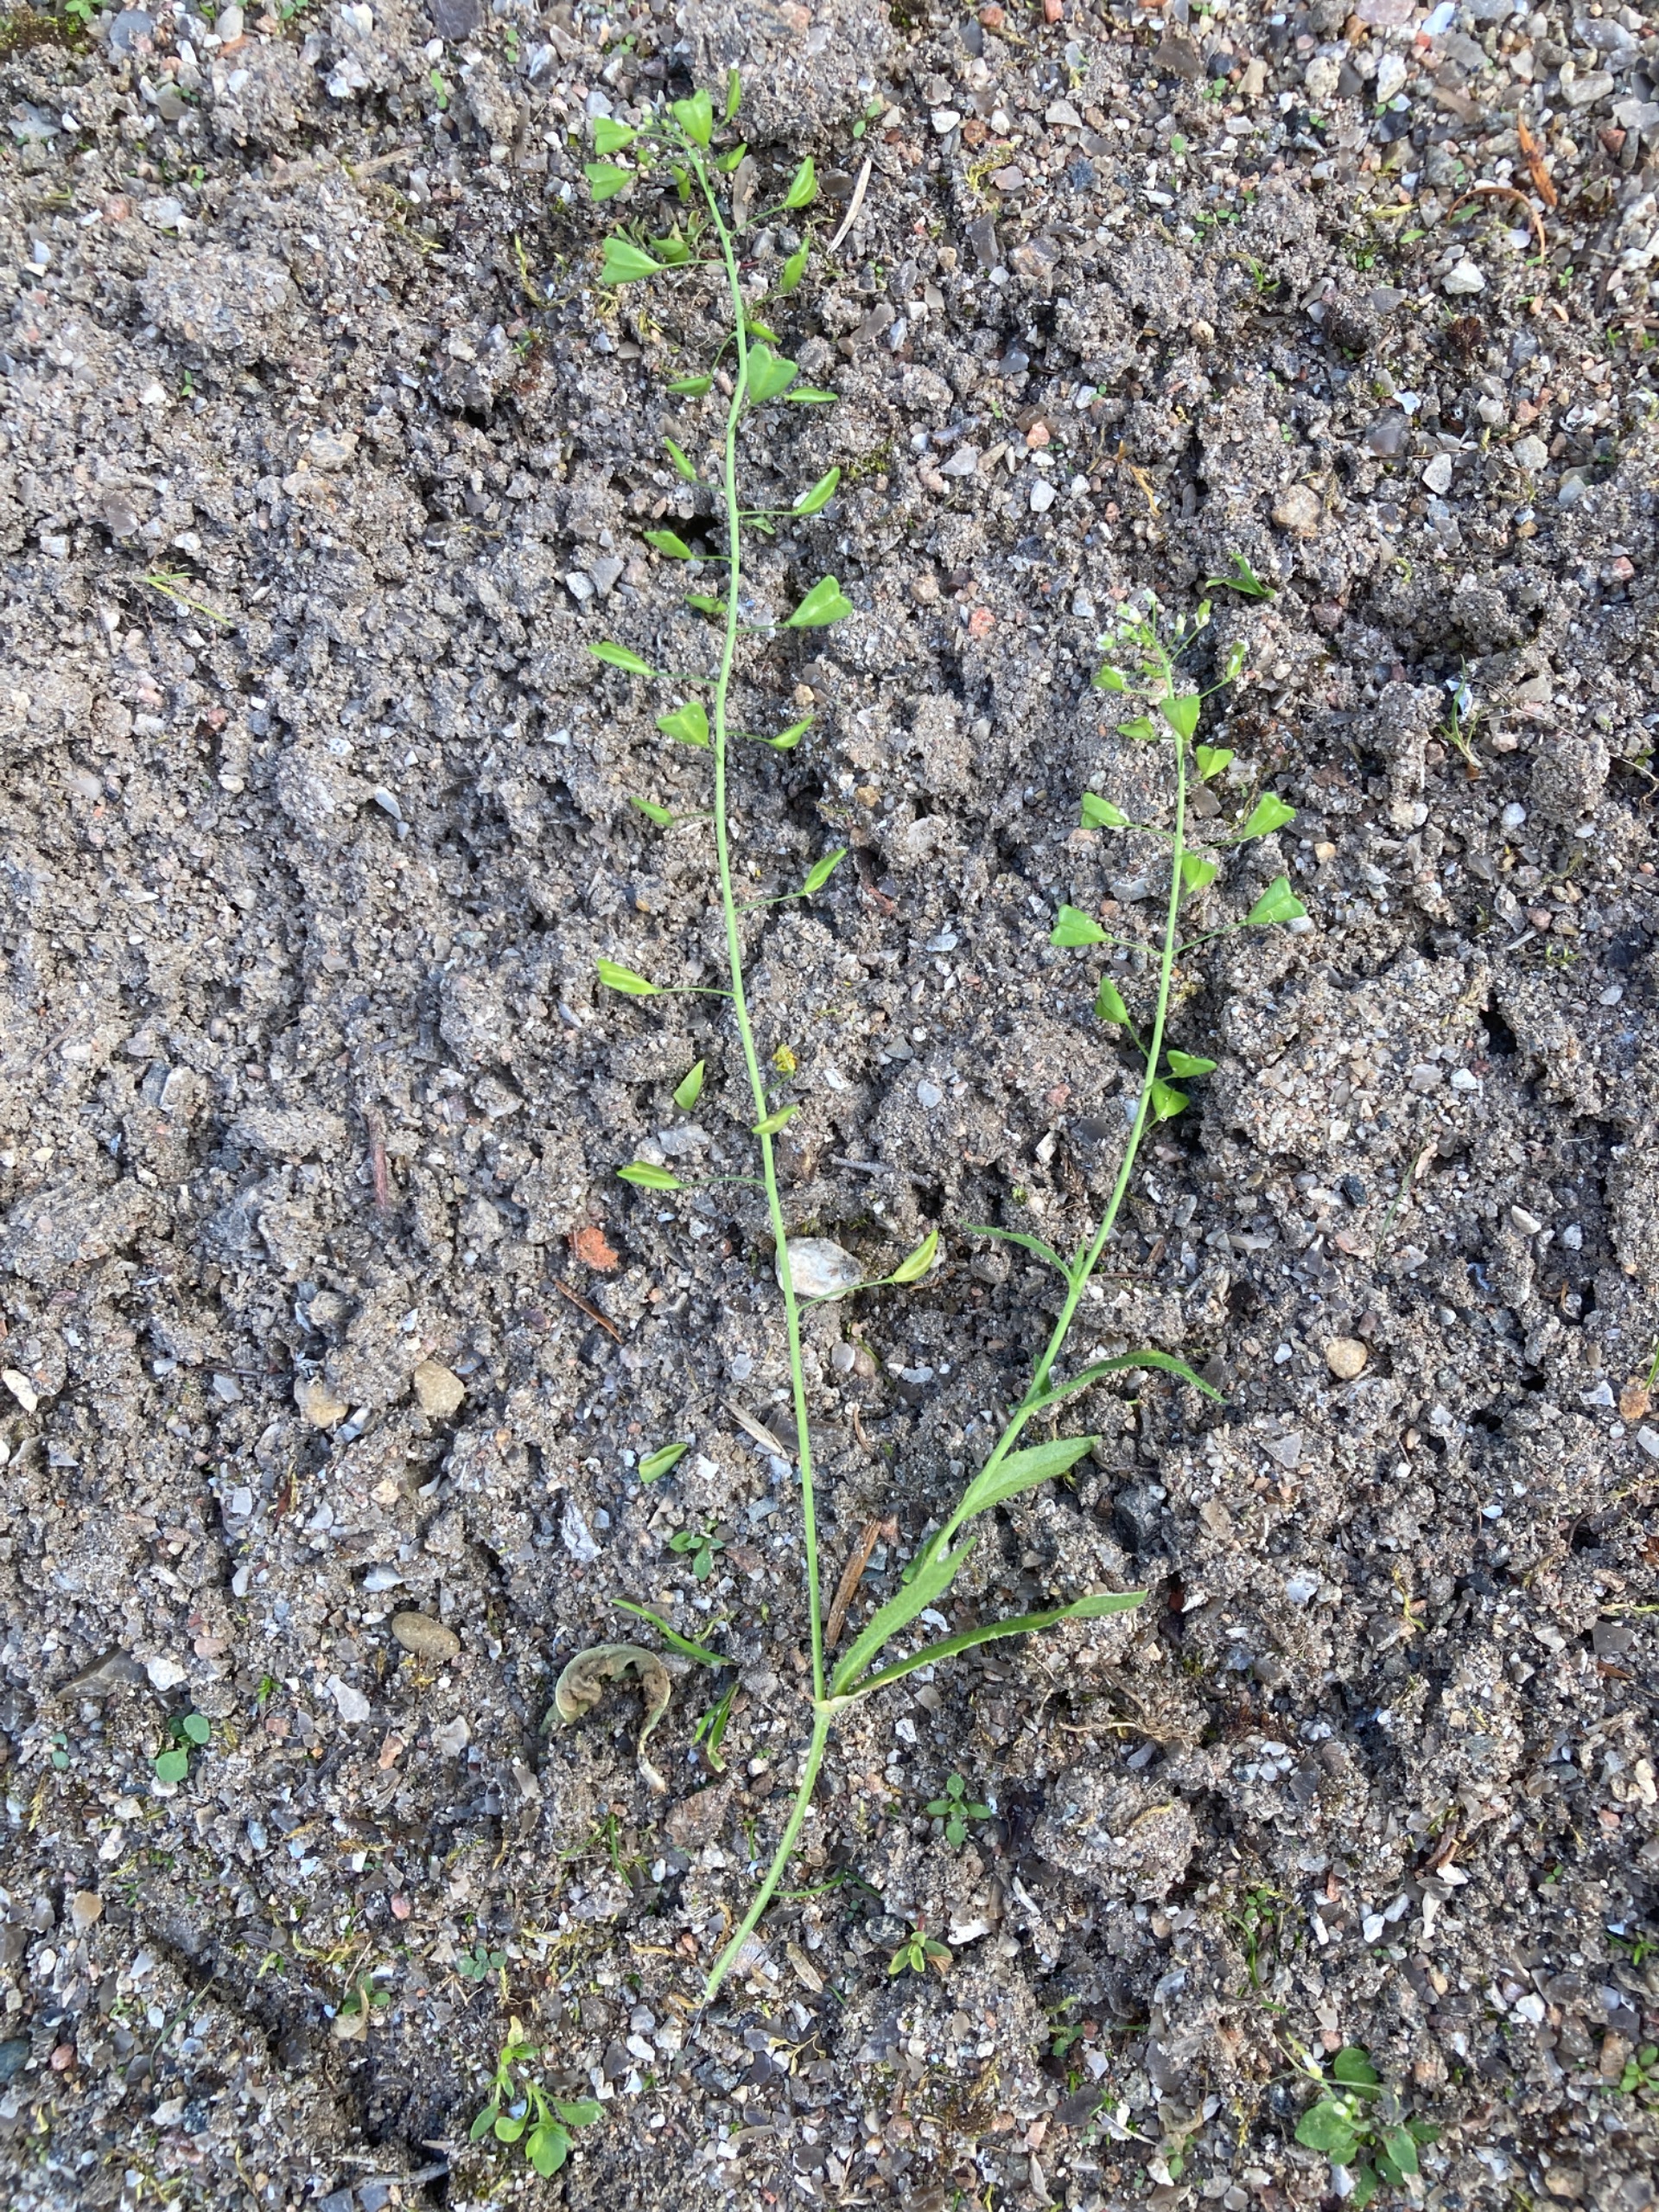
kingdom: Plantae
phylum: Tracheophyta
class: Magnoliopsida
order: Brassicales
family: Brassicaceae
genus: Capsella
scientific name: Capsella bursa-pastoris
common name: Hyrdetaske
